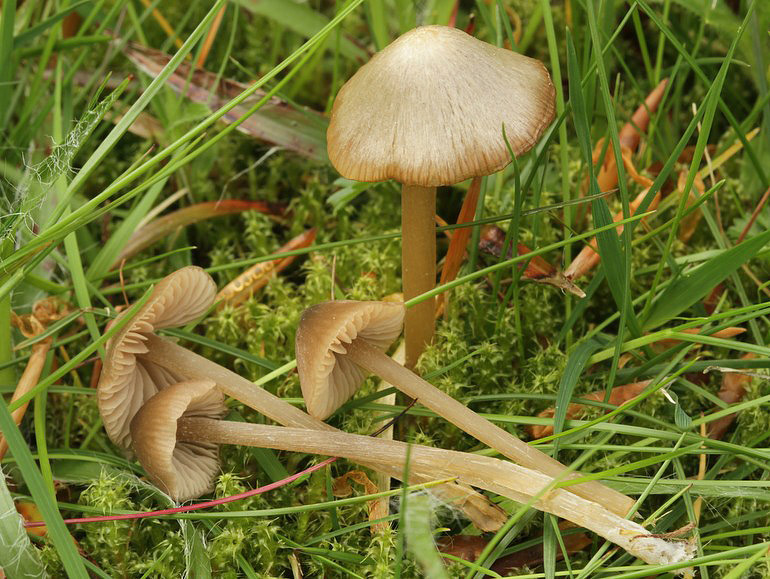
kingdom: Fungi
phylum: Basidiomycota
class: Agaricomycetes
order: Agaricales
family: Entolomataceae
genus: Entoloma
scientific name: Entoloma cuneatum
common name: dunstokket rødblad
